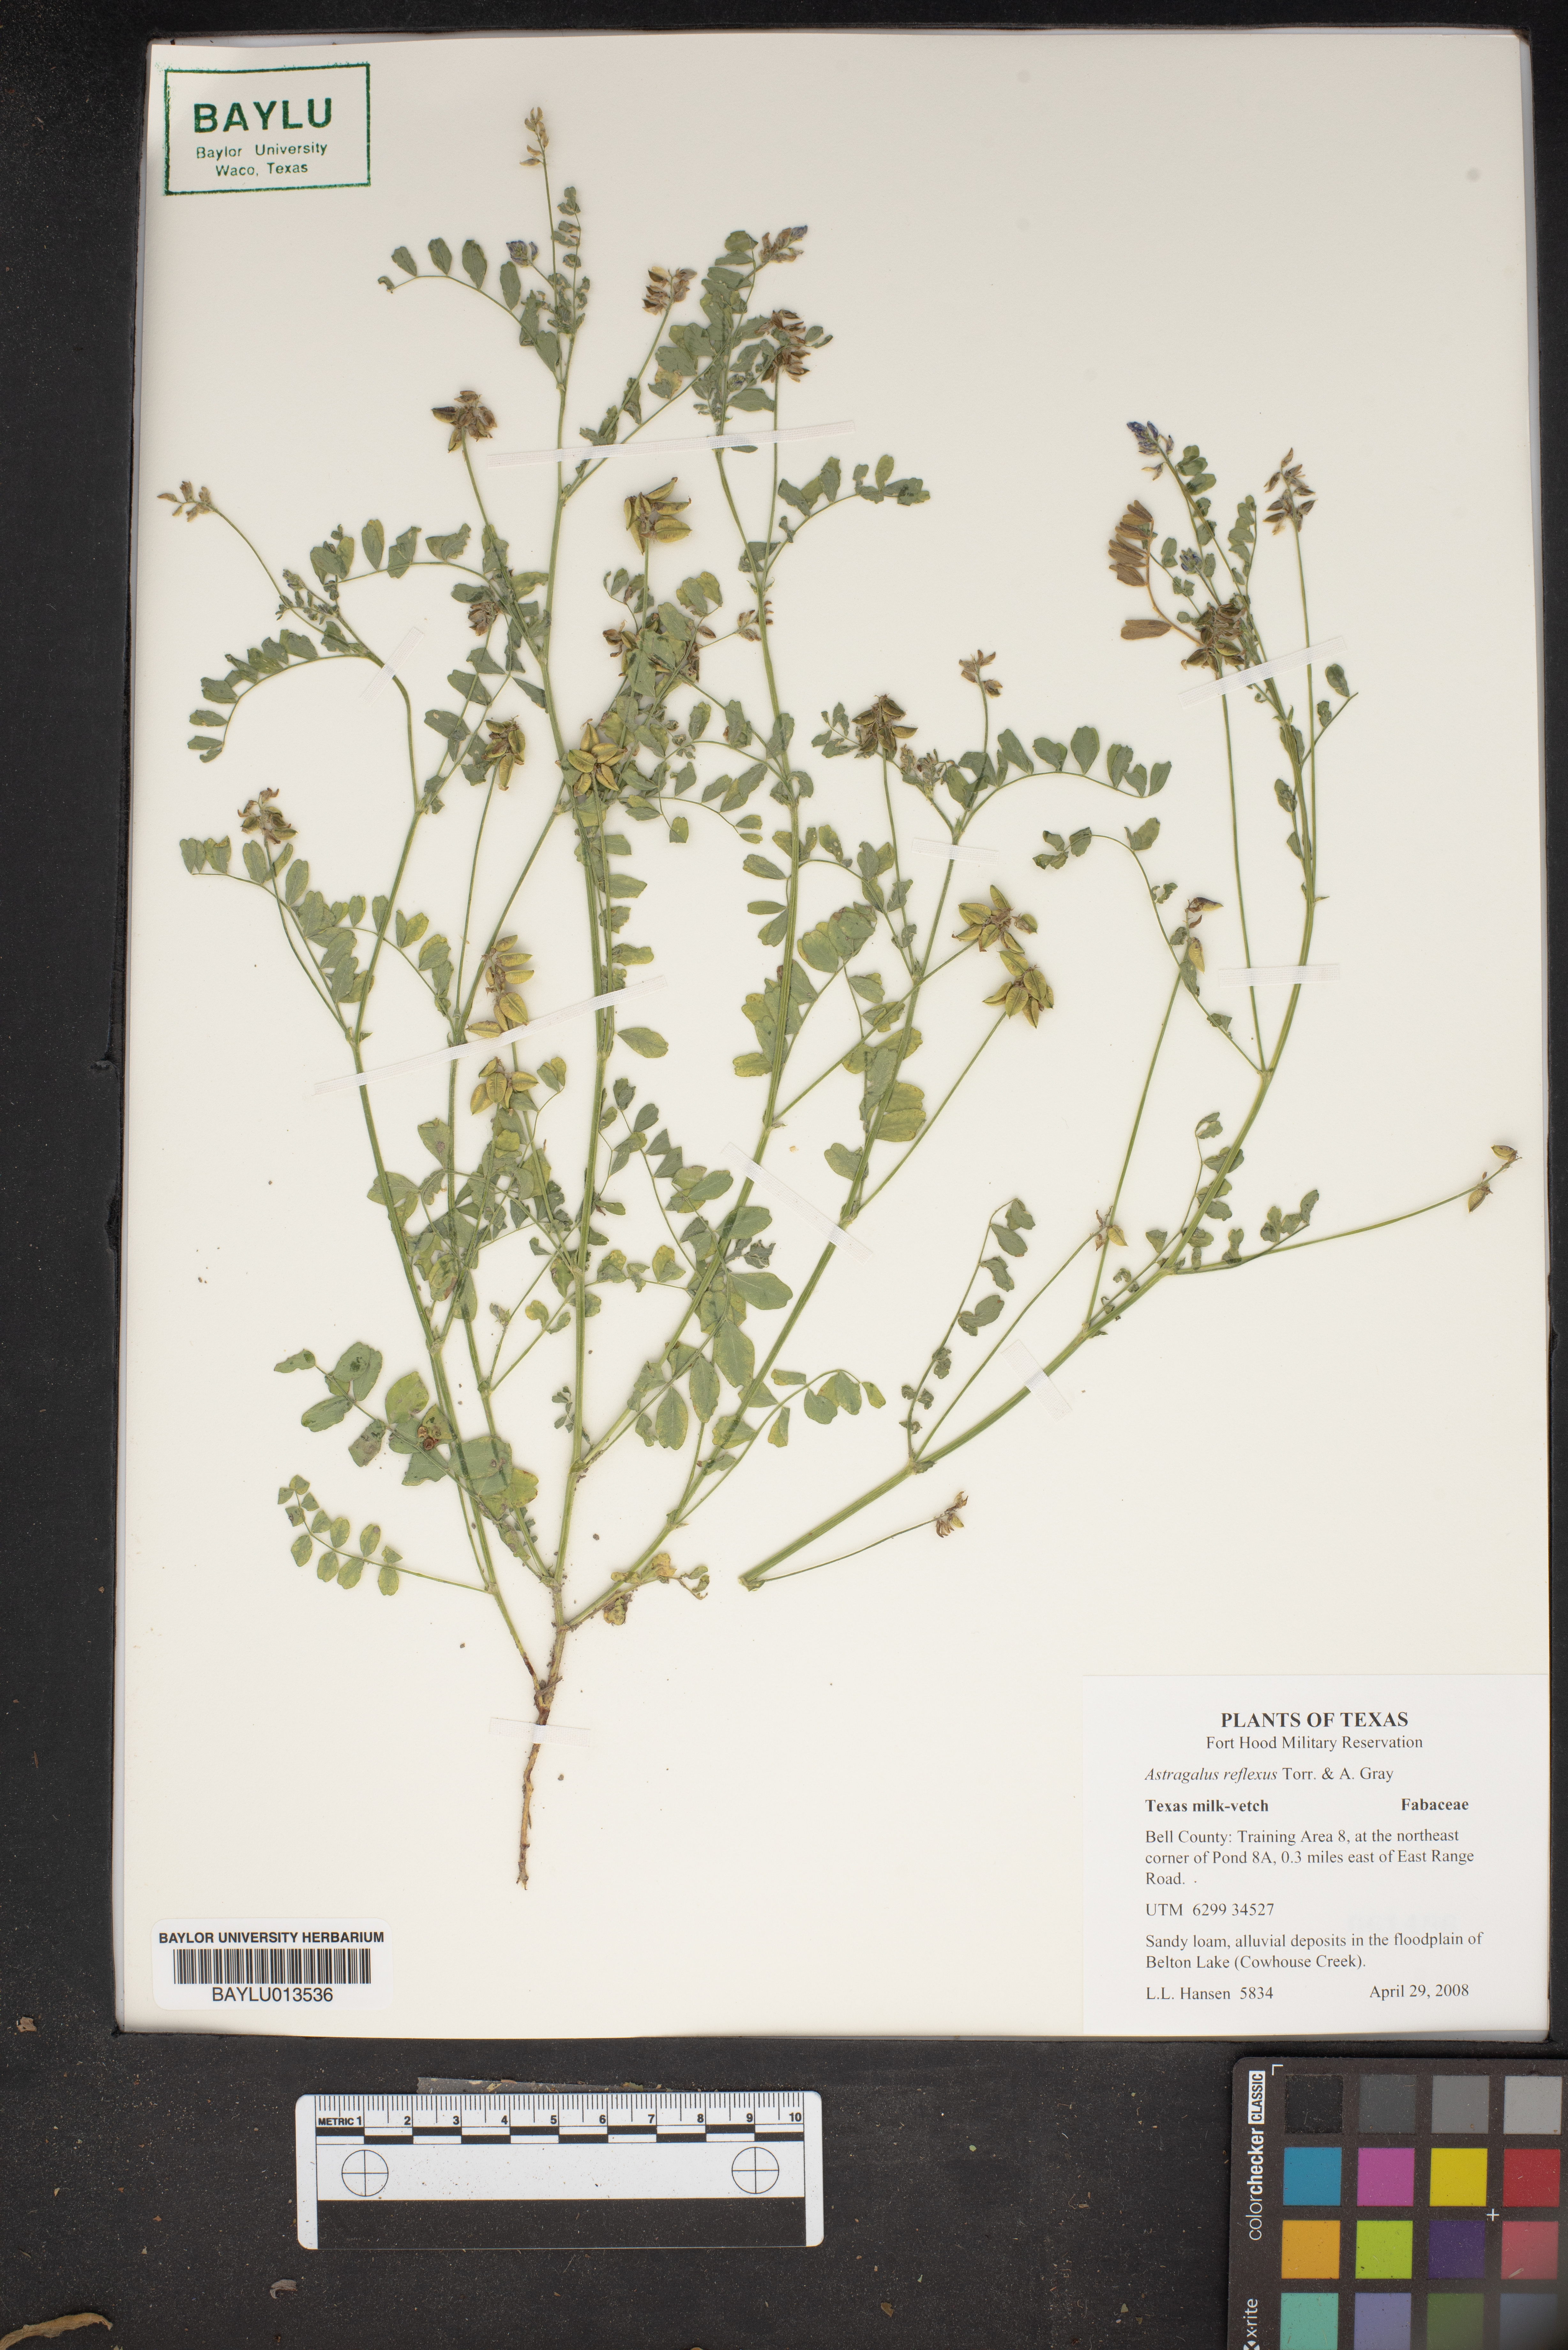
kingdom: Plantae
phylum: Tracheophyta
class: Magnoliopsida
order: Fabales
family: Fabaceae
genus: Astragalus
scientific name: Astragalus reflexus
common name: Texas milk-vetch
